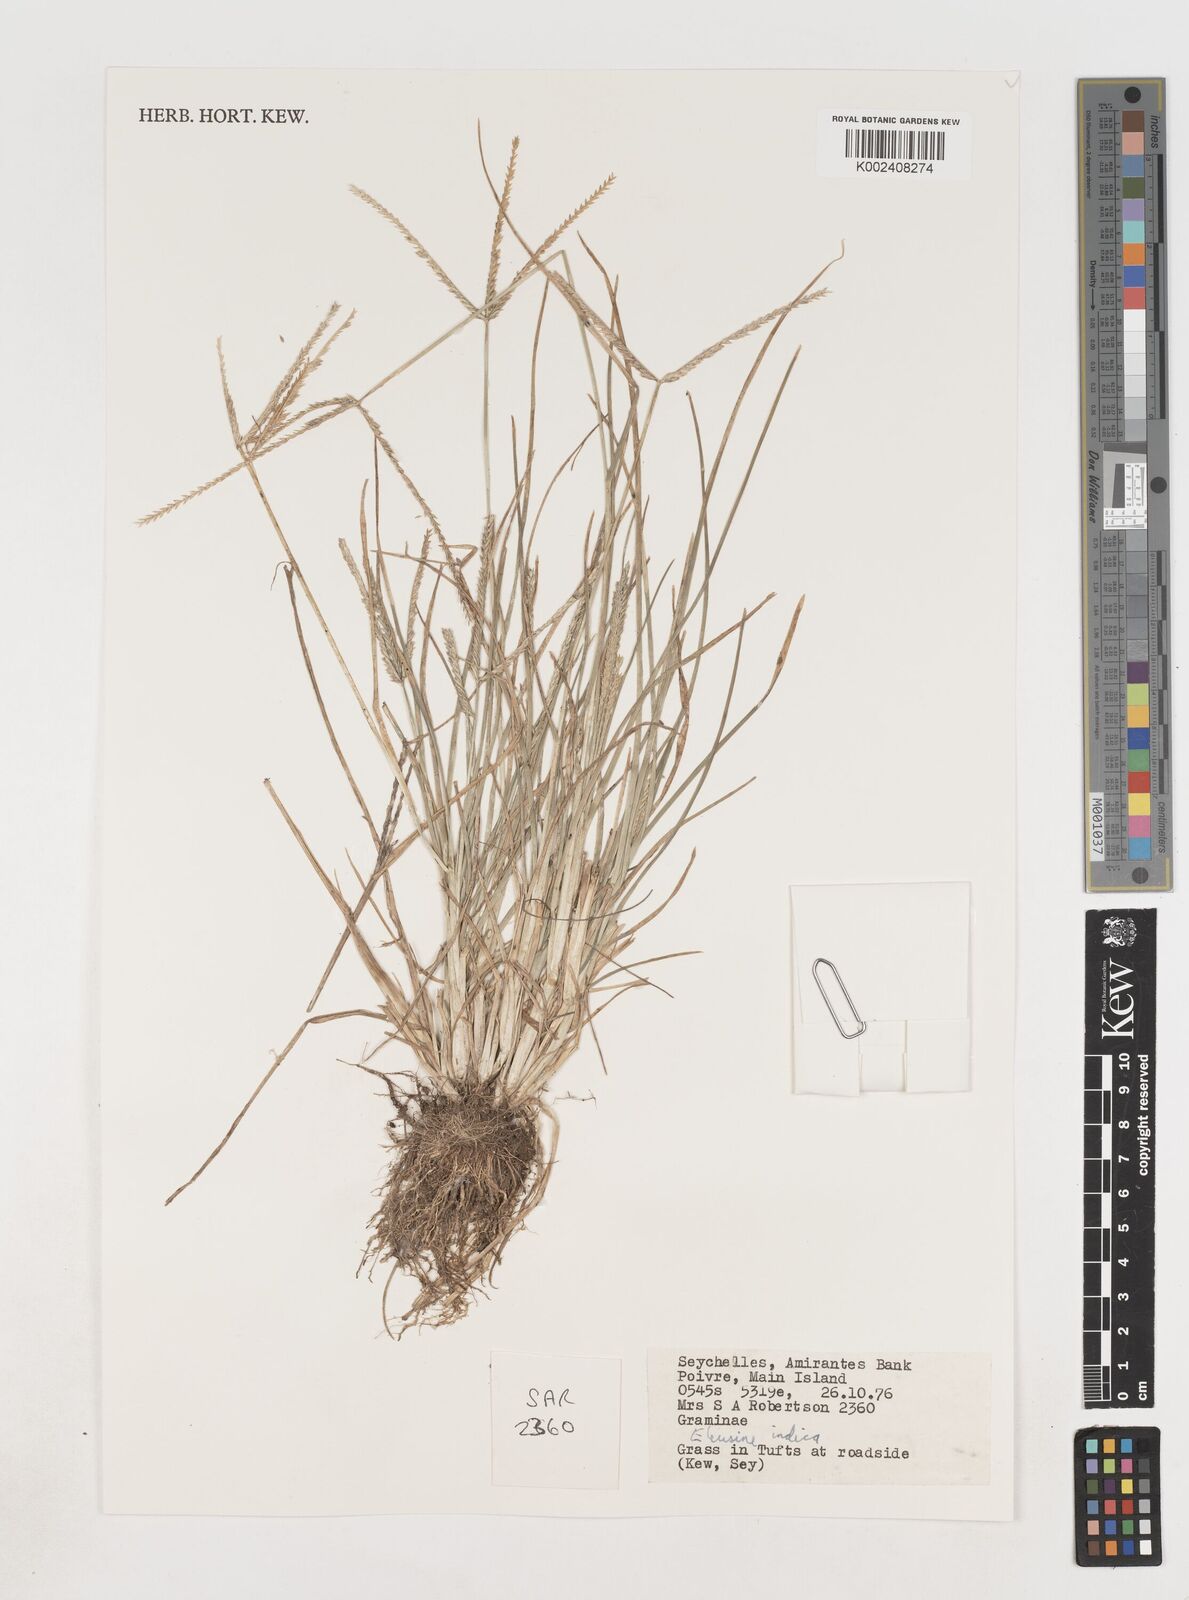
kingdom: Plantae
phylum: Tracheophyta
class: Liliopsida
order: Poales
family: Poaceae
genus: Eleusine
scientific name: Eleusine indica
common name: Yard-grass
